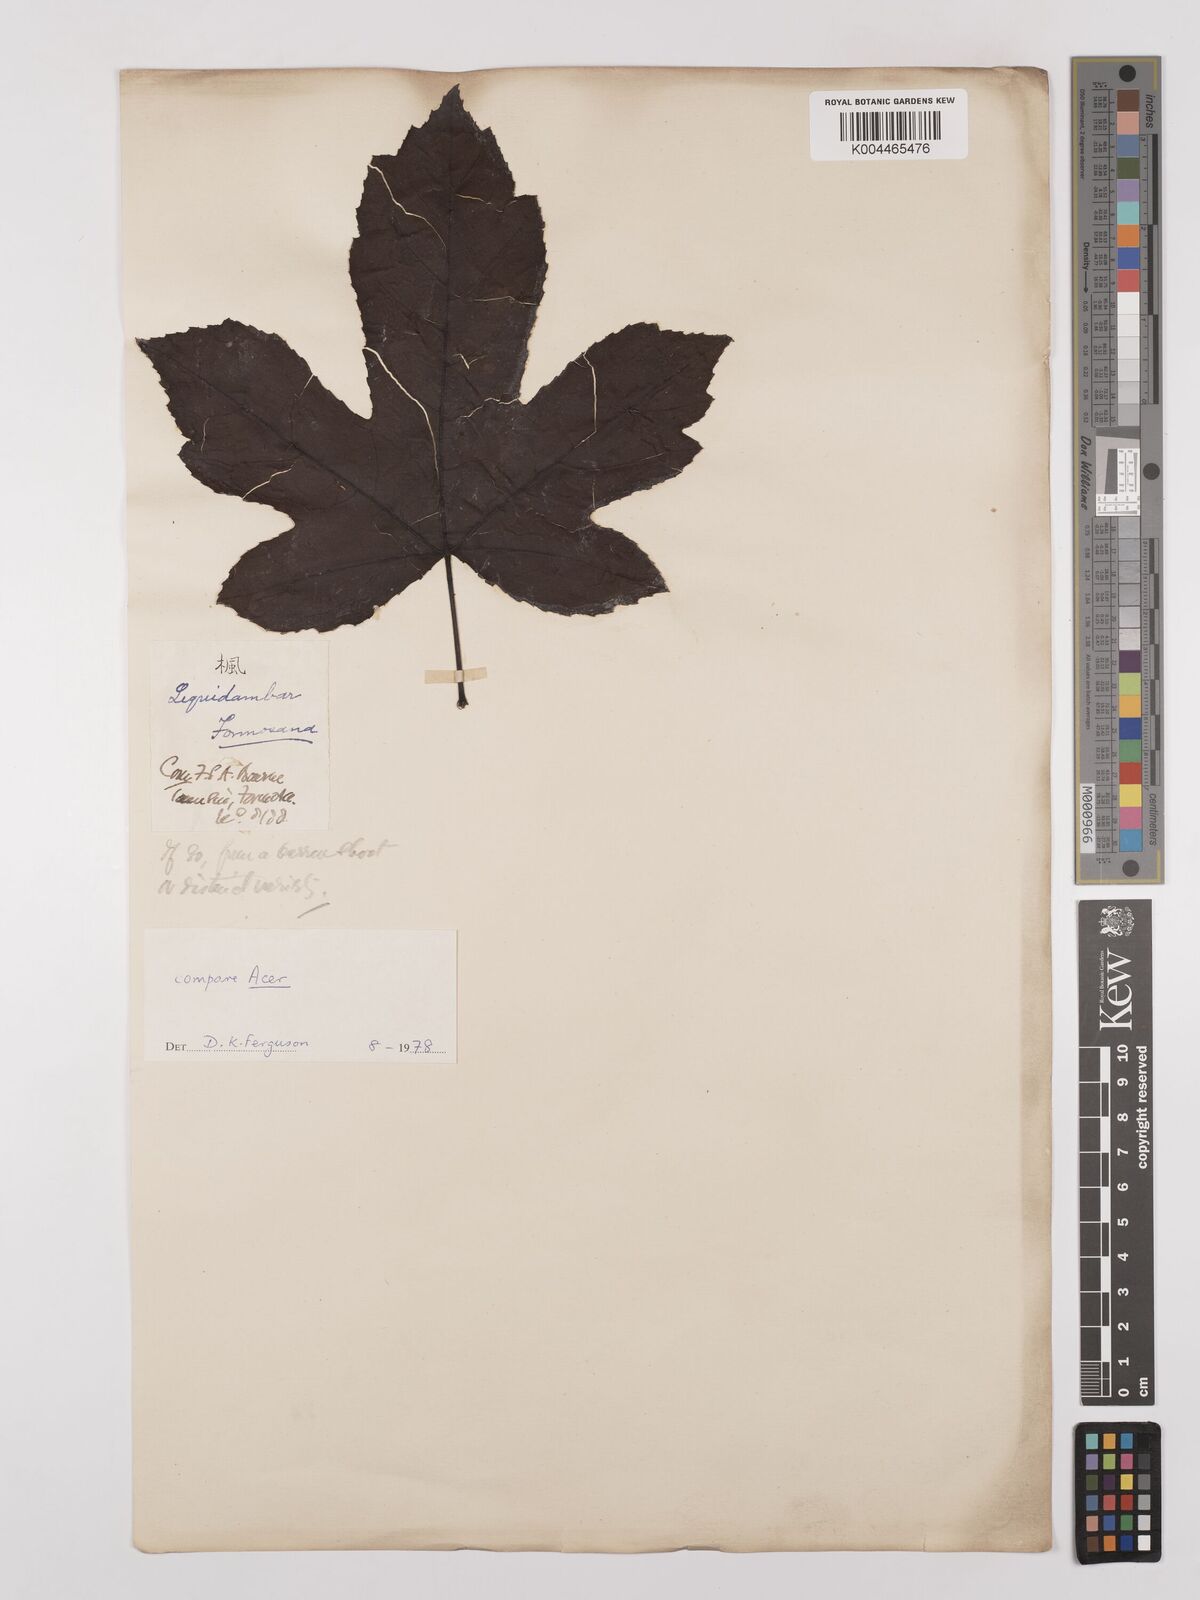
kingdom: Plantae
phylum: Tracheophyta
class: Magnoliopsida
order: Saxifragales
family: Altingiaceae
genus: Liquidambar
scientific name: Liquidambar formosana
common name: Chinese sweet gum
